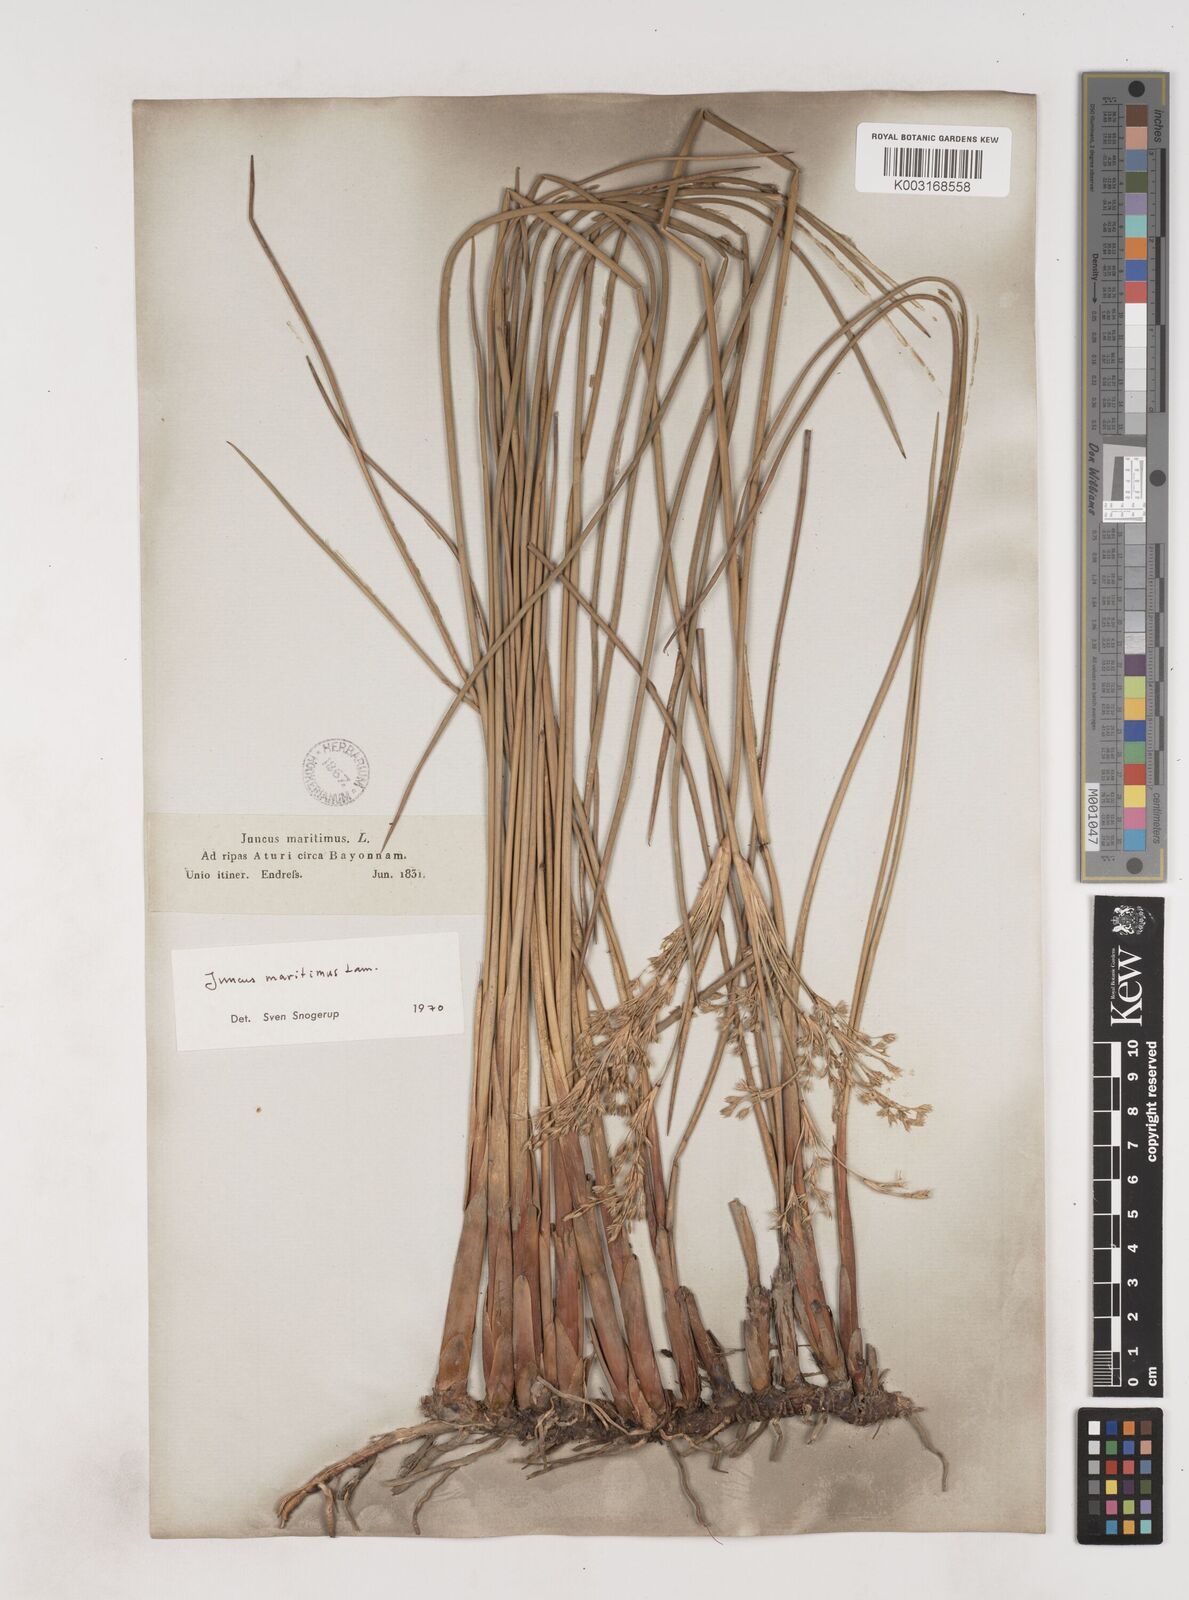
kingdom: Plantae
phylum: Tracheophyta
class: Liliopsida
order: Poales
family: Juncaceae
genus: Juncus
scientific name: Juncus maritimus
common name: Sea rush
